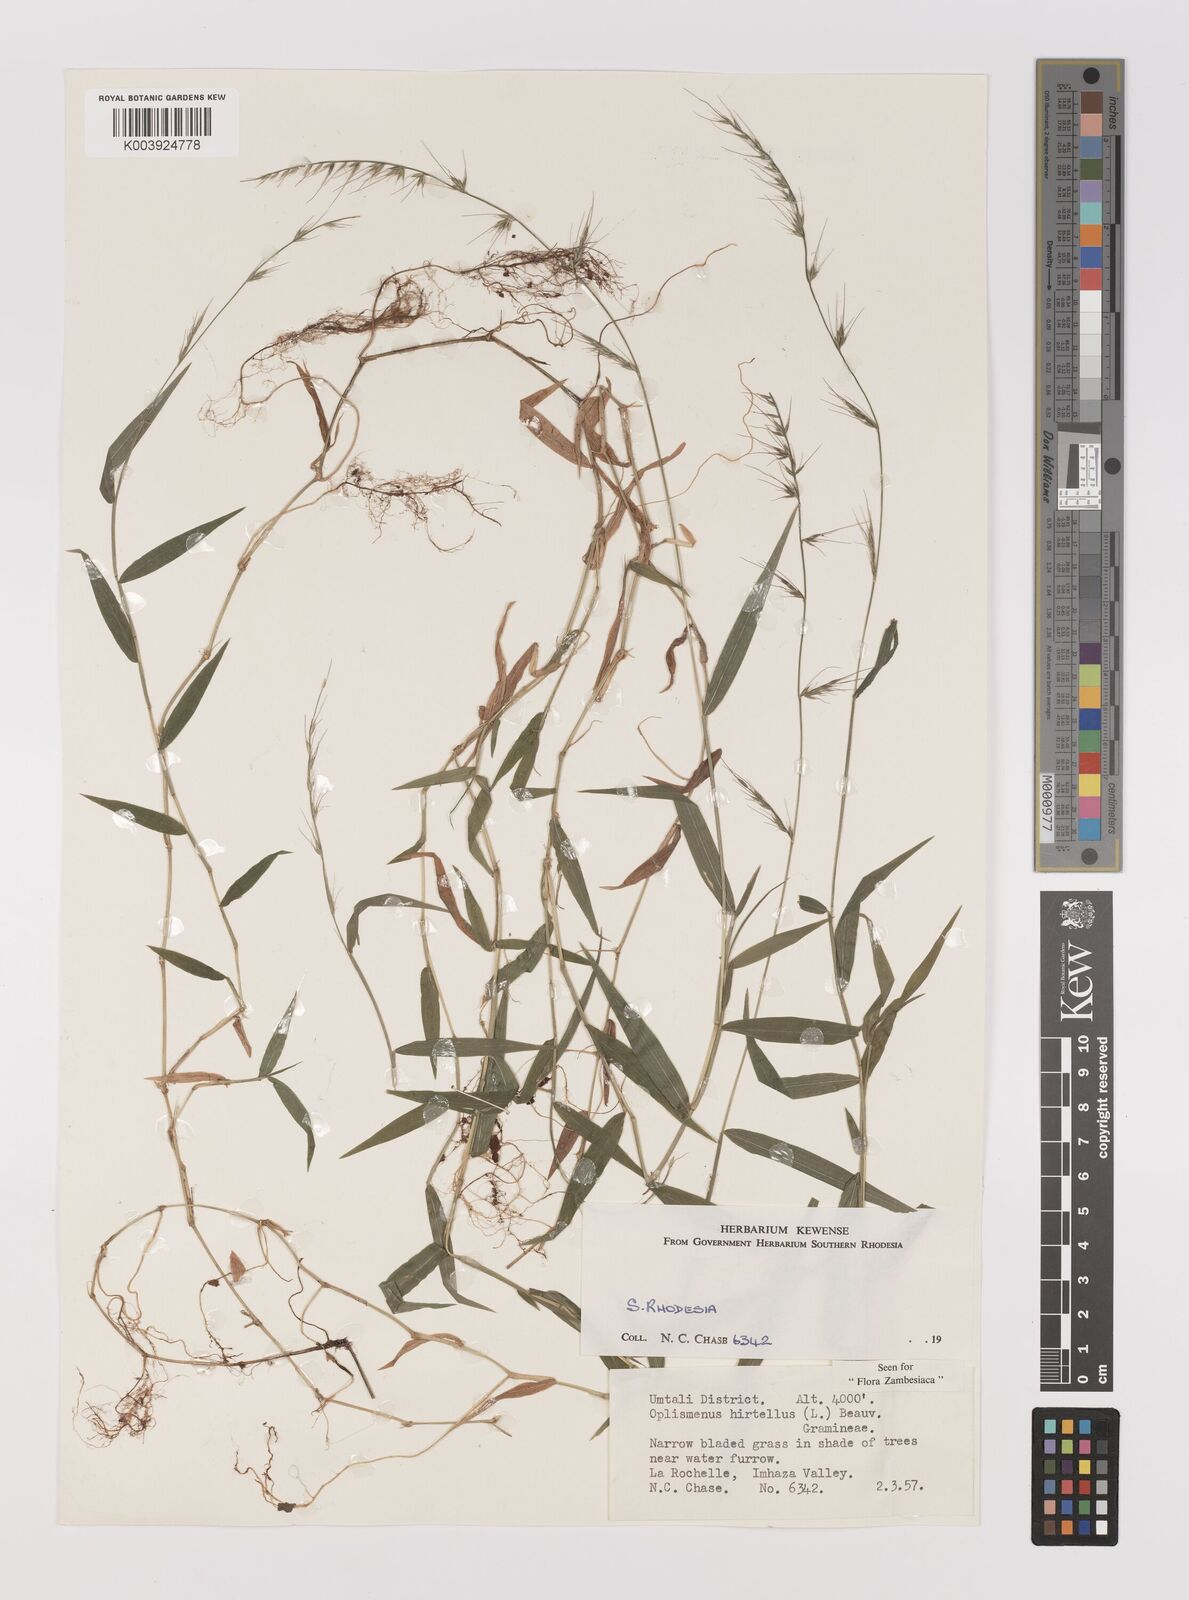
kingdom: Plantae
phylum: Tracheophyta
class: Liliopsida
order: Poales
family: Poaceae
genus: Oplismenus
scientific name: Oplismenus hirtellus
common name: Basketgrass
